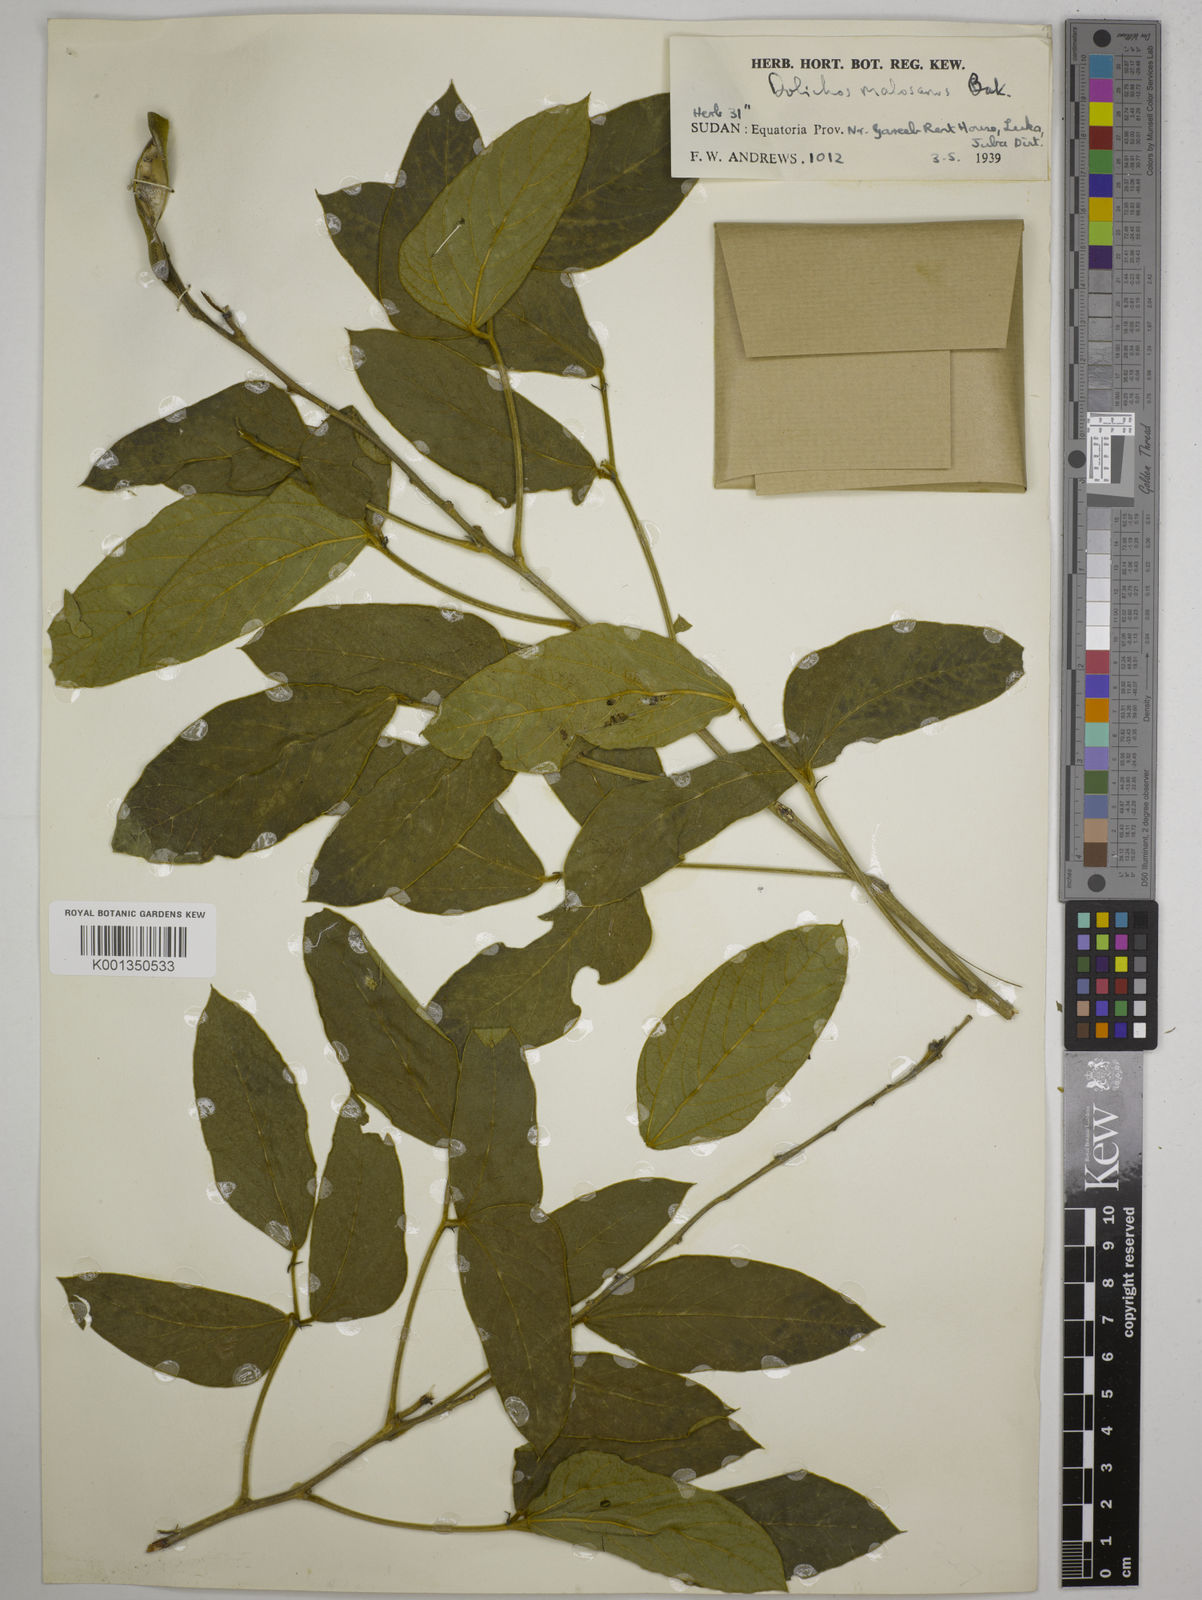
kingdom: Plantae
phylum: Tracheophyta
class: Magnoliopsida
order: Fabales
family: Fabaceae
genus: Dolichos
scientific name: Dolichos kilimandscharicus
